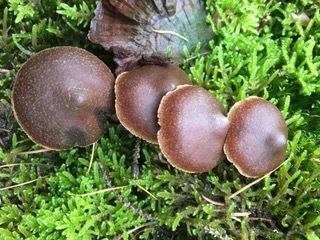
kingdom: Fungi
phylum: Basidiomycota
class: Agaricomycetes
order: Agaricales
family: Cortinariaceae
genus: Cortinarius
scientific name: Cortinarius desertorum
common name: skær slørhat
